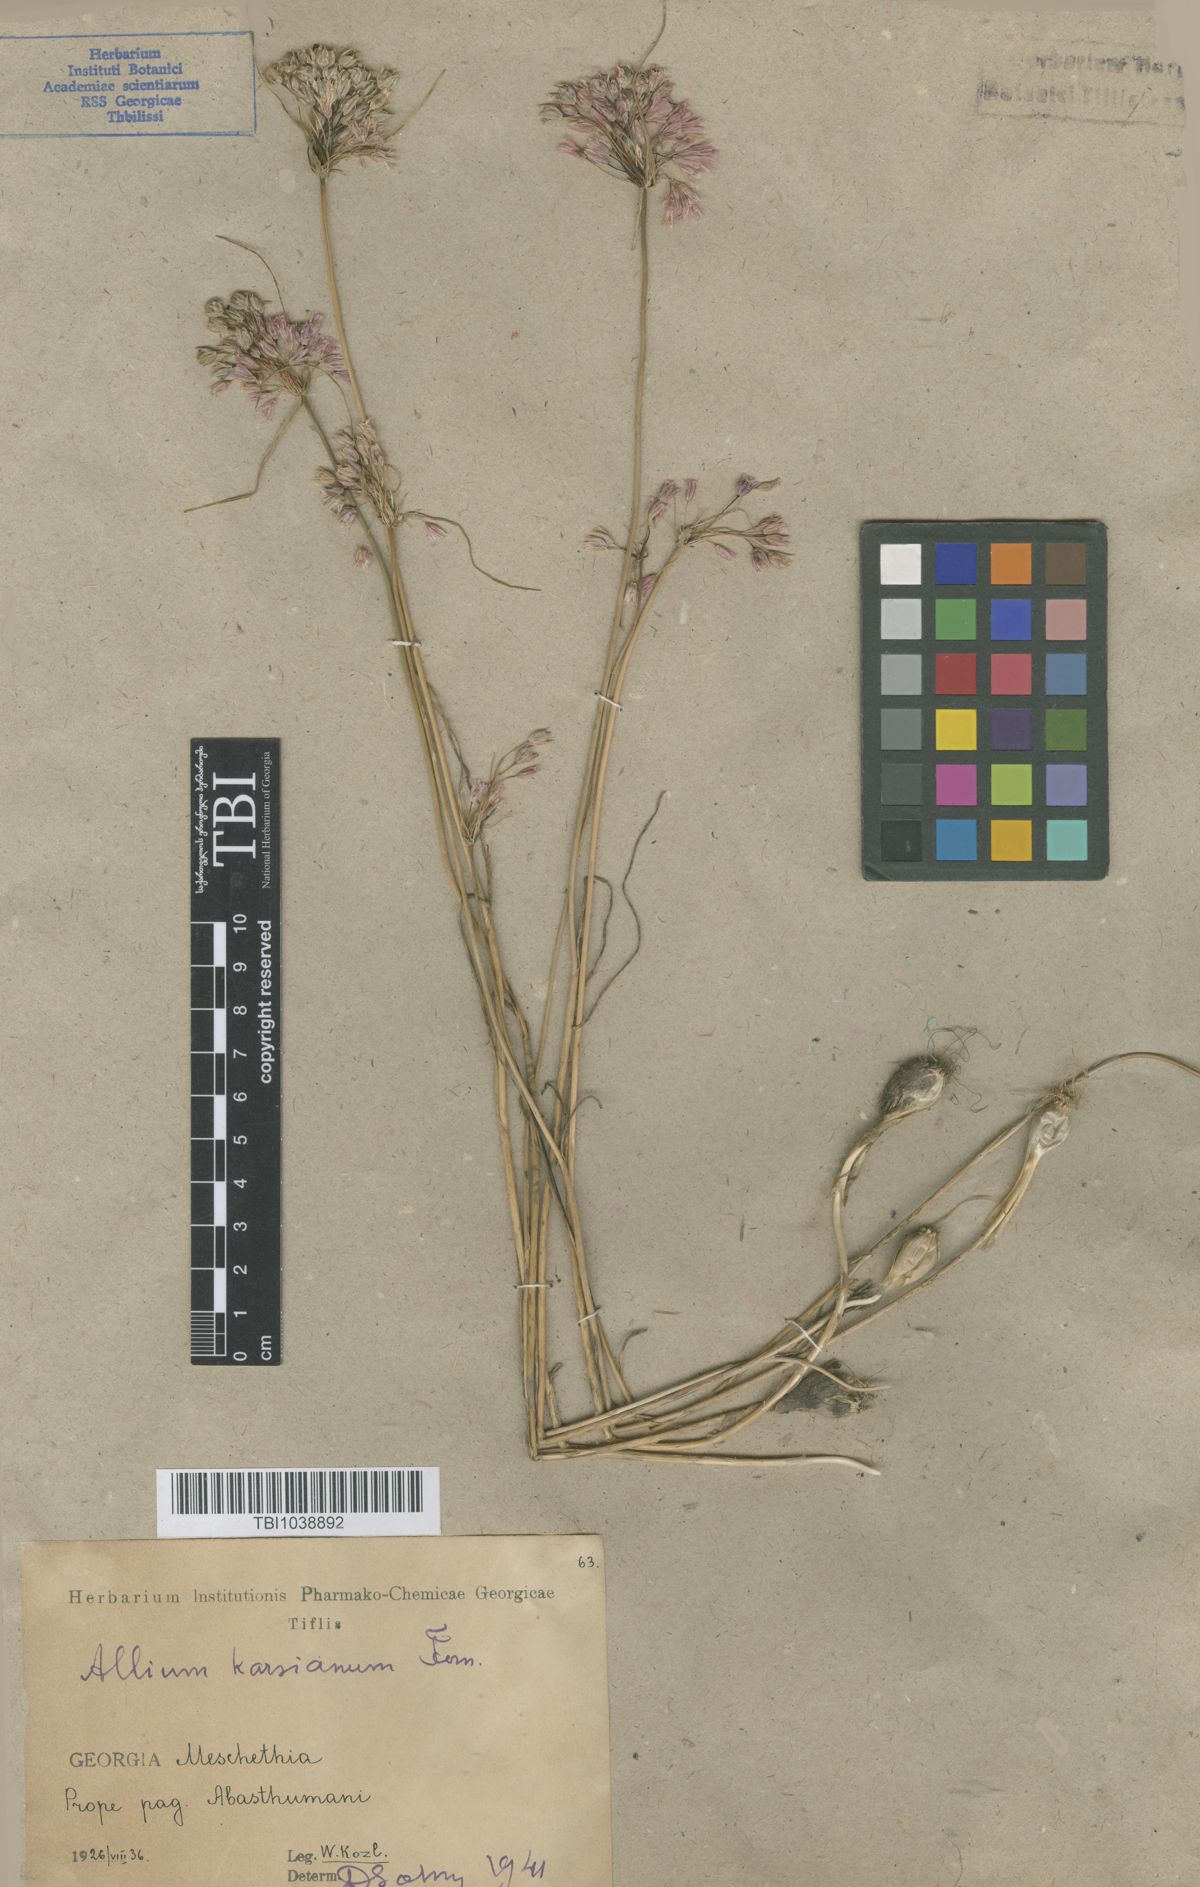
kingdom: Plantae
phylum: Tracheophyta
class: Liliopsida
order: Asparagales
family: Amaryllidaceae
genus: Allium
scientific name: Allium paniculatum
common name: Pale garlic
